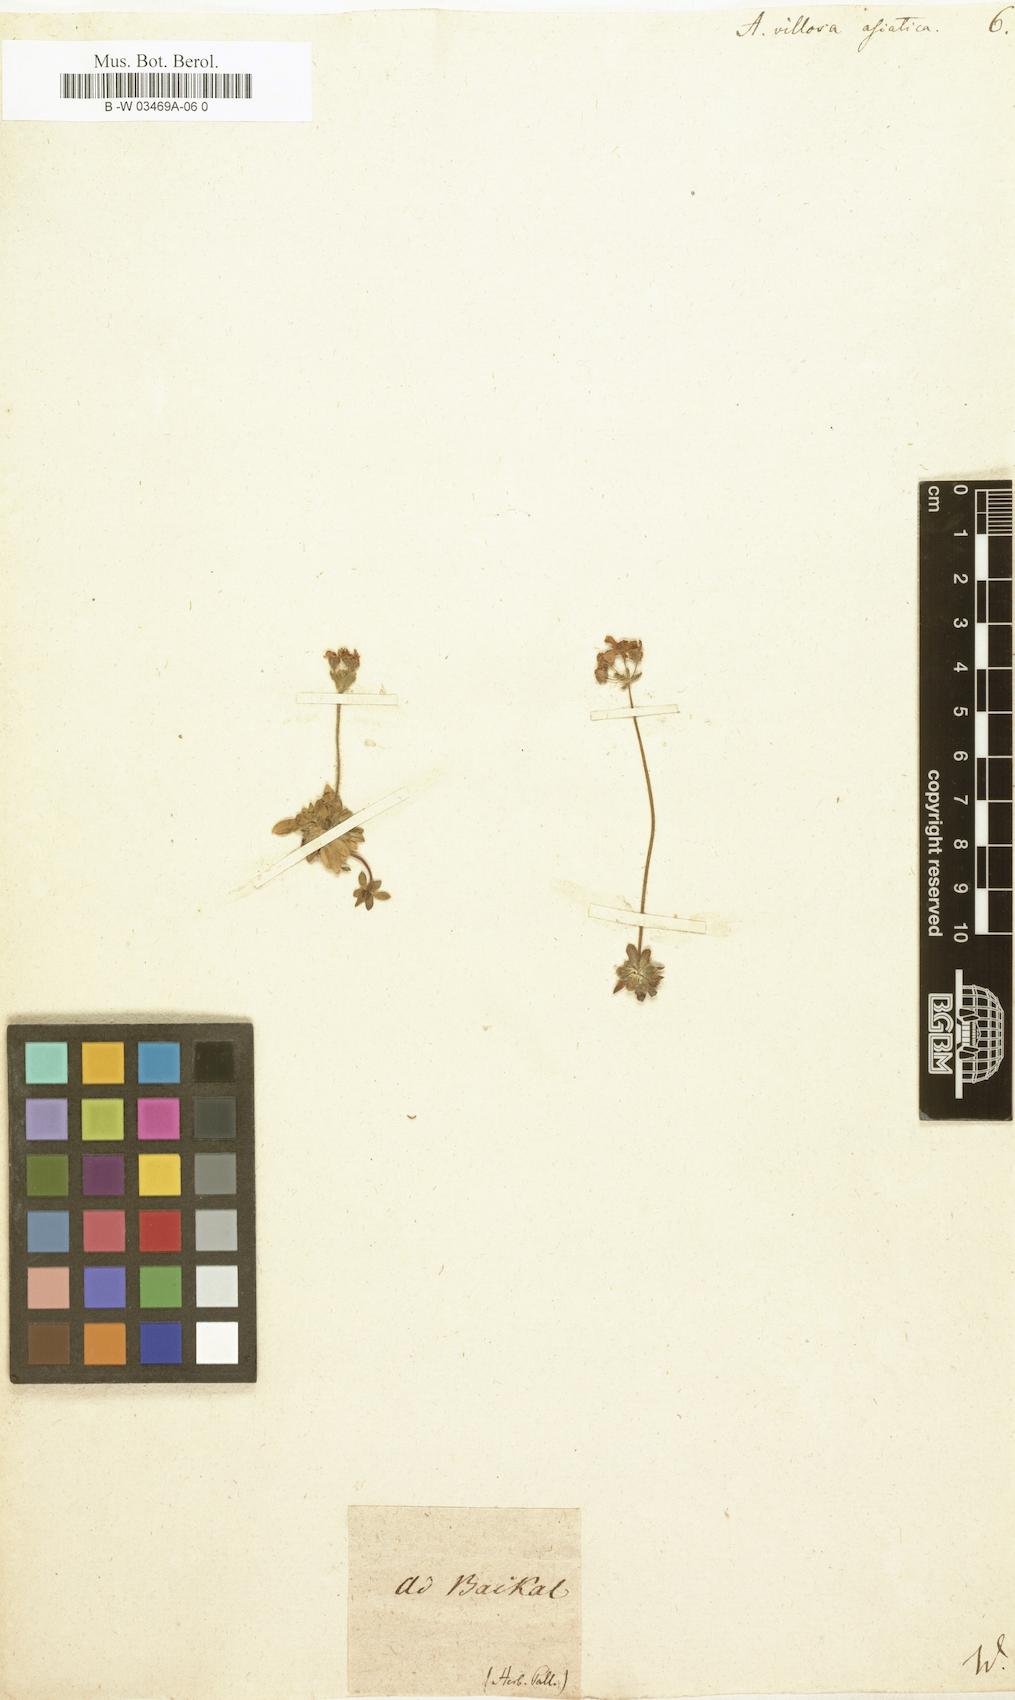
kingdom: Plantae
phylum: Tracheophyta
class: Magnoliopsida
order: Ericales
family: Primulaceae
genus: Androsace
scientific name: Androsace villosa
